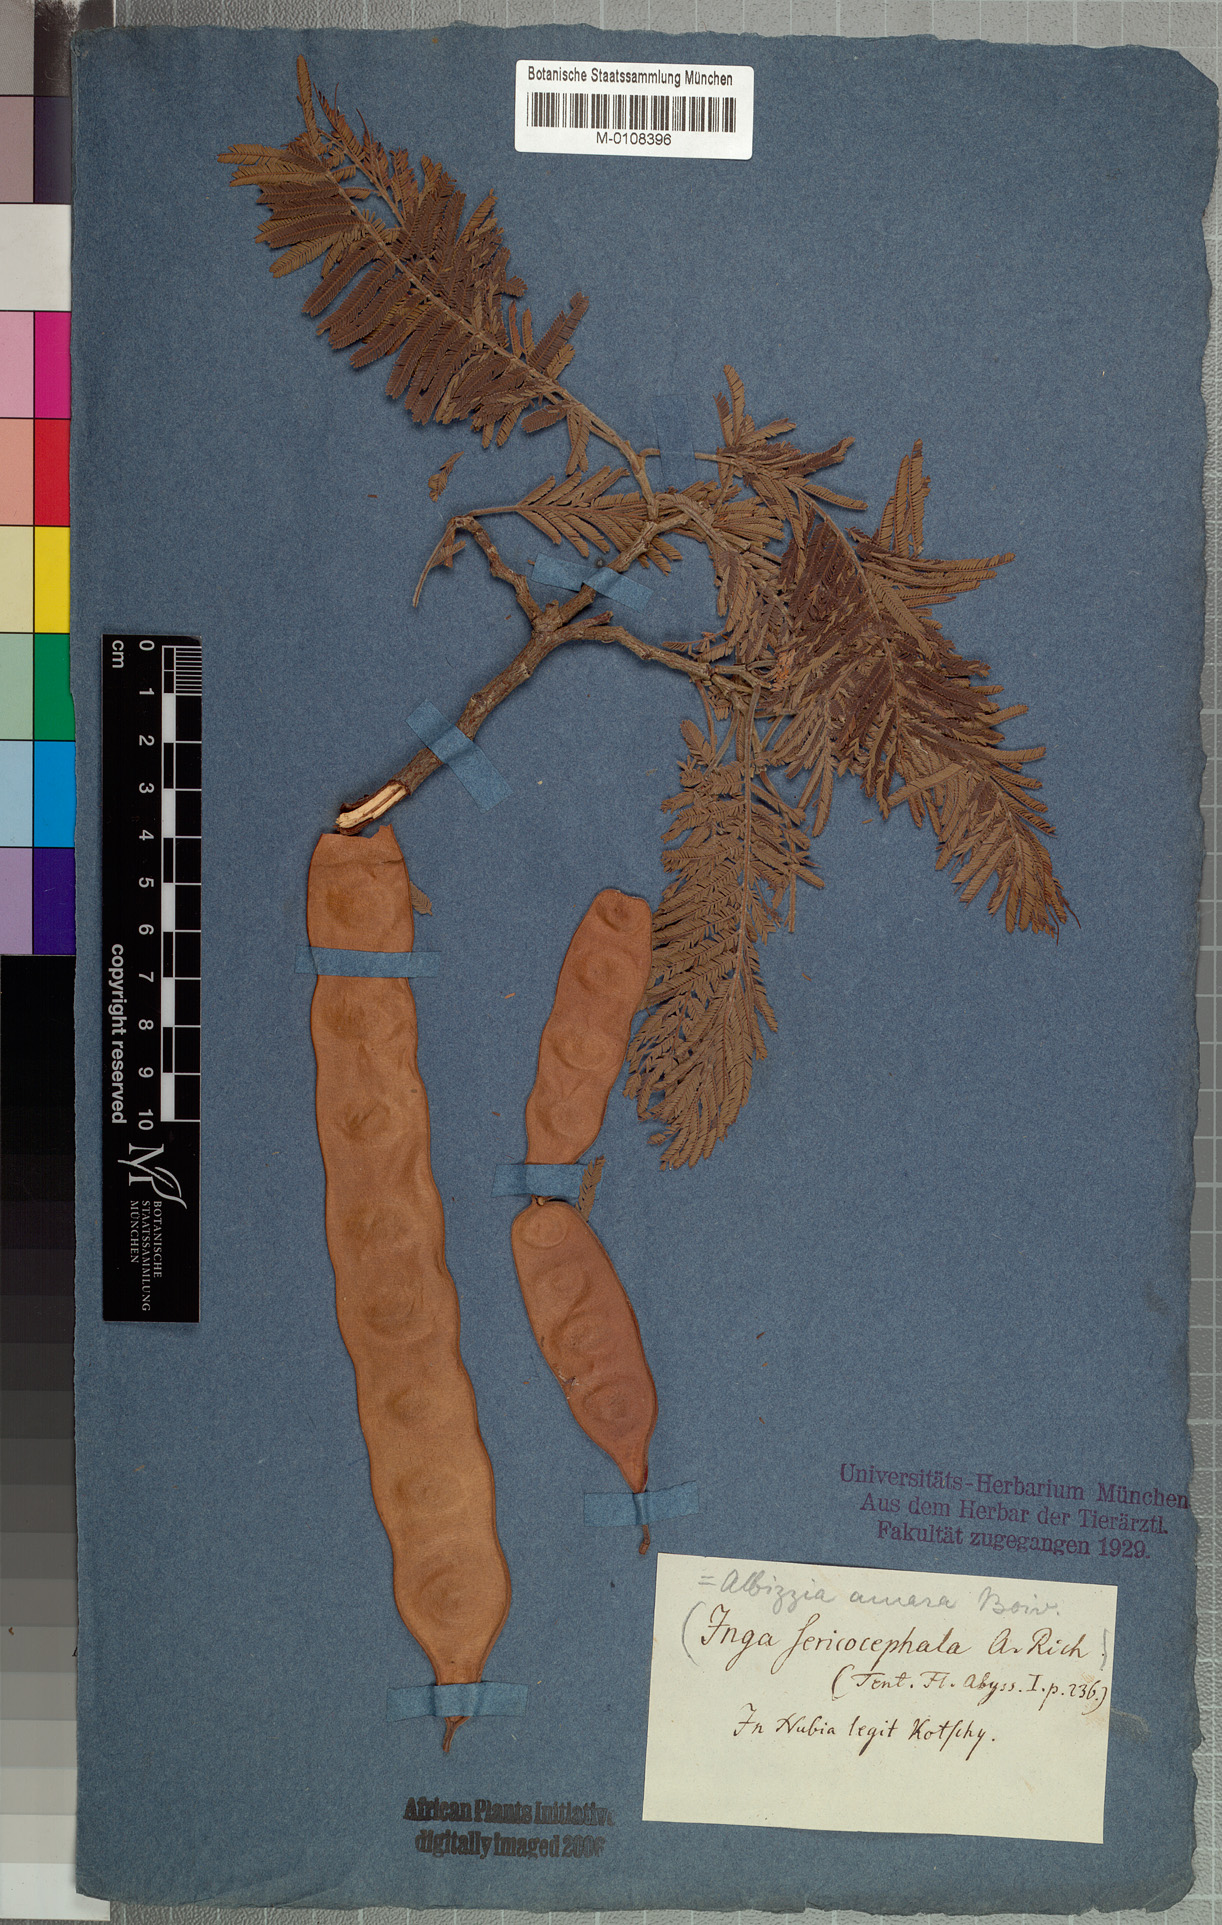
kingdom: Plantae
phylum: Tracheophyta
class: Magnoliopsida
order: Fabales
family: Fabaceae
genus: Albizia
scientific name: Albizia amara
